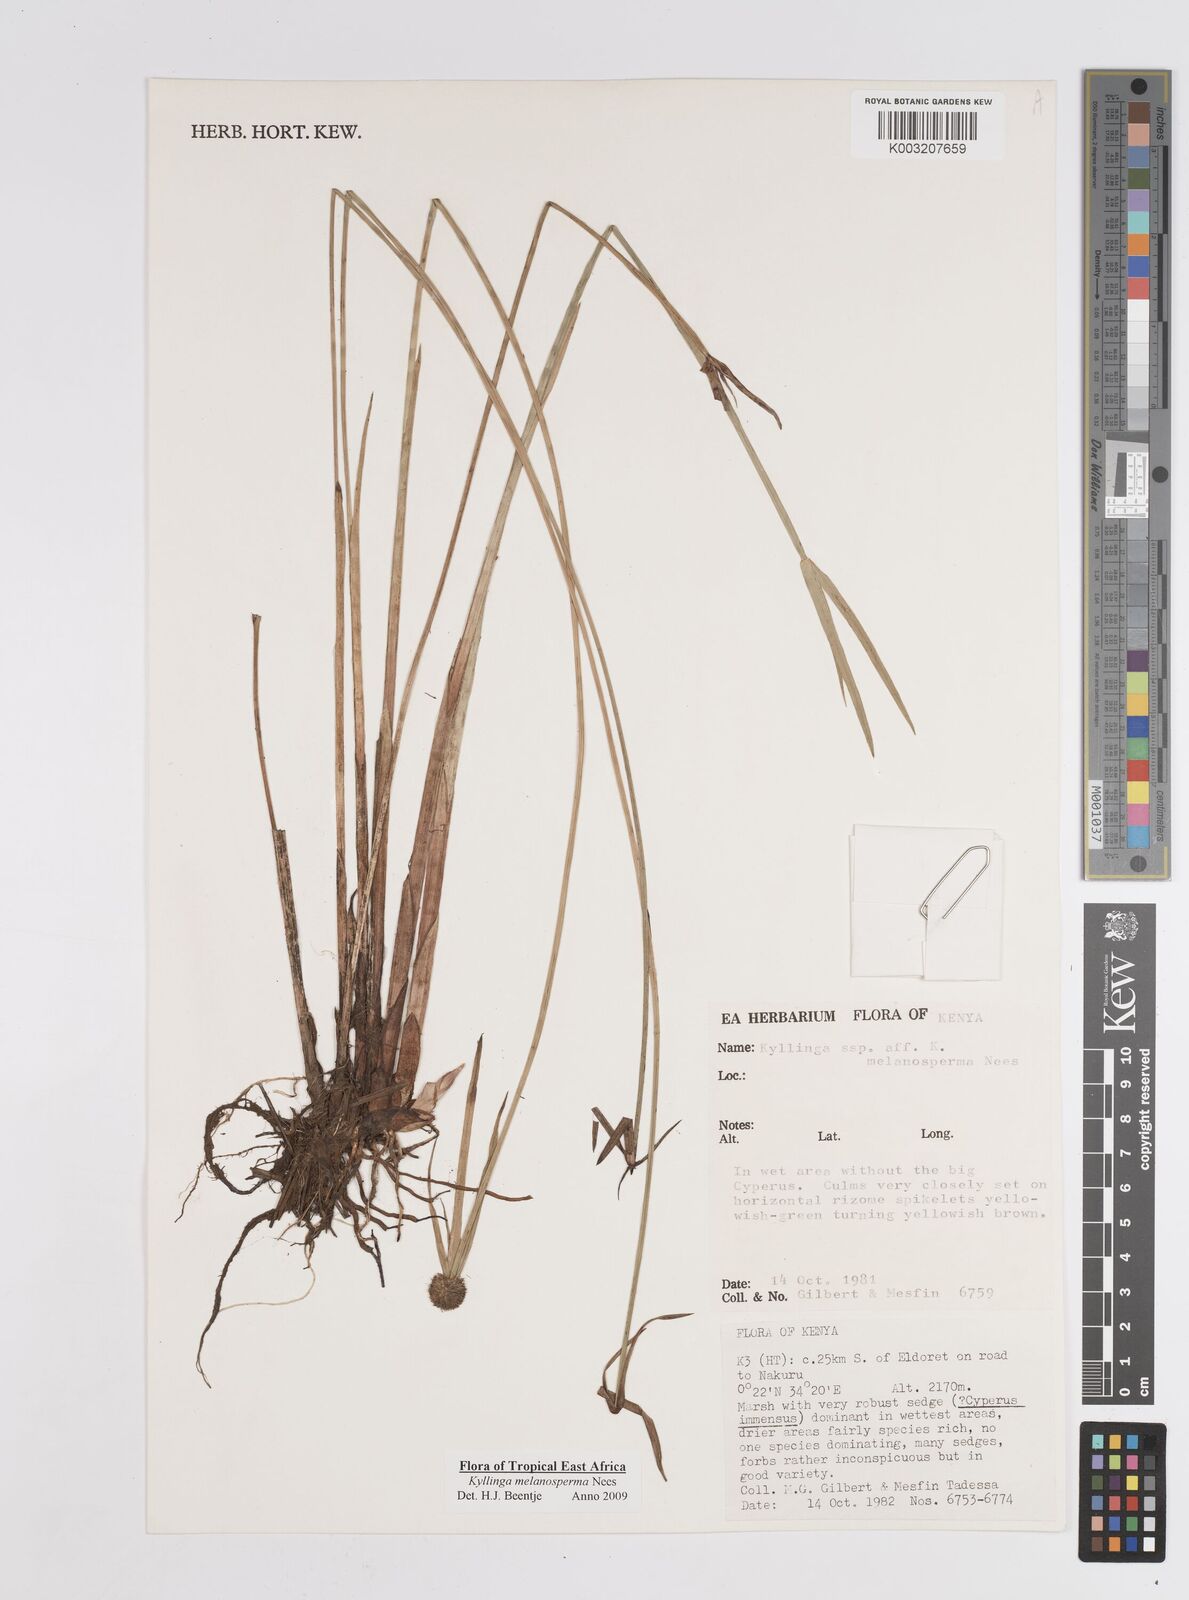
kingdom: Plantae
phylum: Tracheophyta
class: Liliopsida
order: Poales
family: Cyperaceae
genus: Cyperus
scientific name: Cyperus
